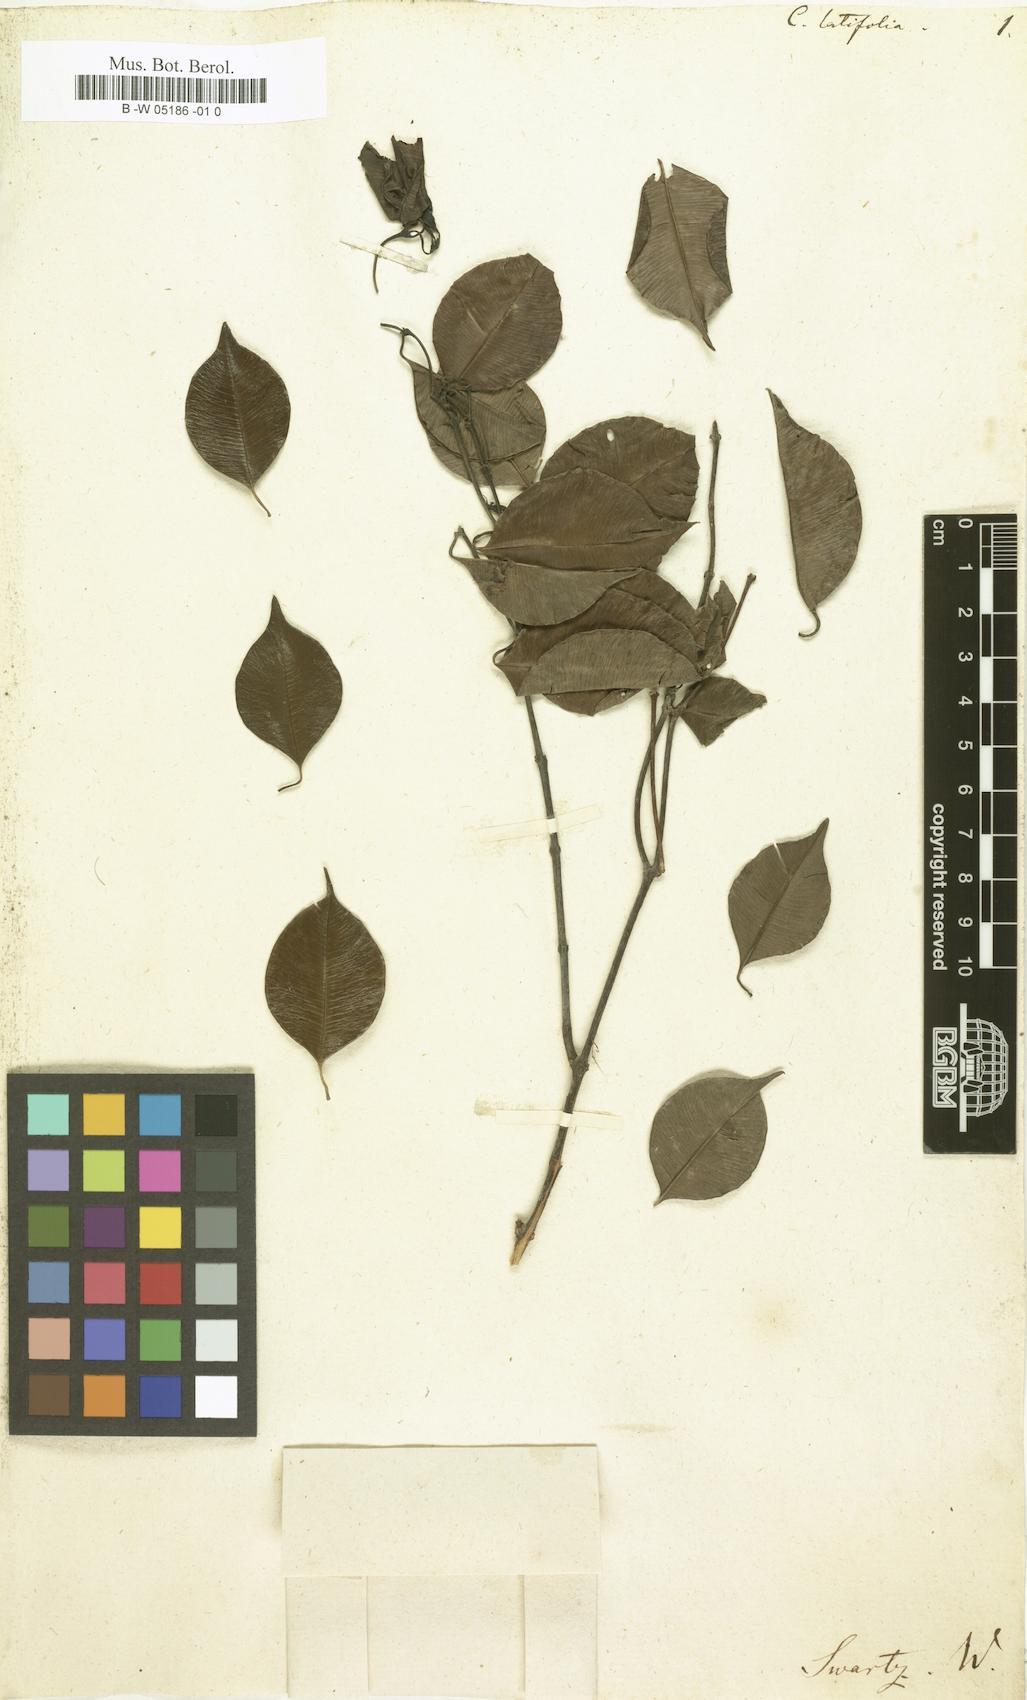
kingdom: Plantae
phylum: Tracheophyta
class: Magnoliopsida
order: Gentianales
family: Apocynaceae
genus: Cameraria
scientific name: Cameraria latifolia
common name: Savanna white poisonwood
